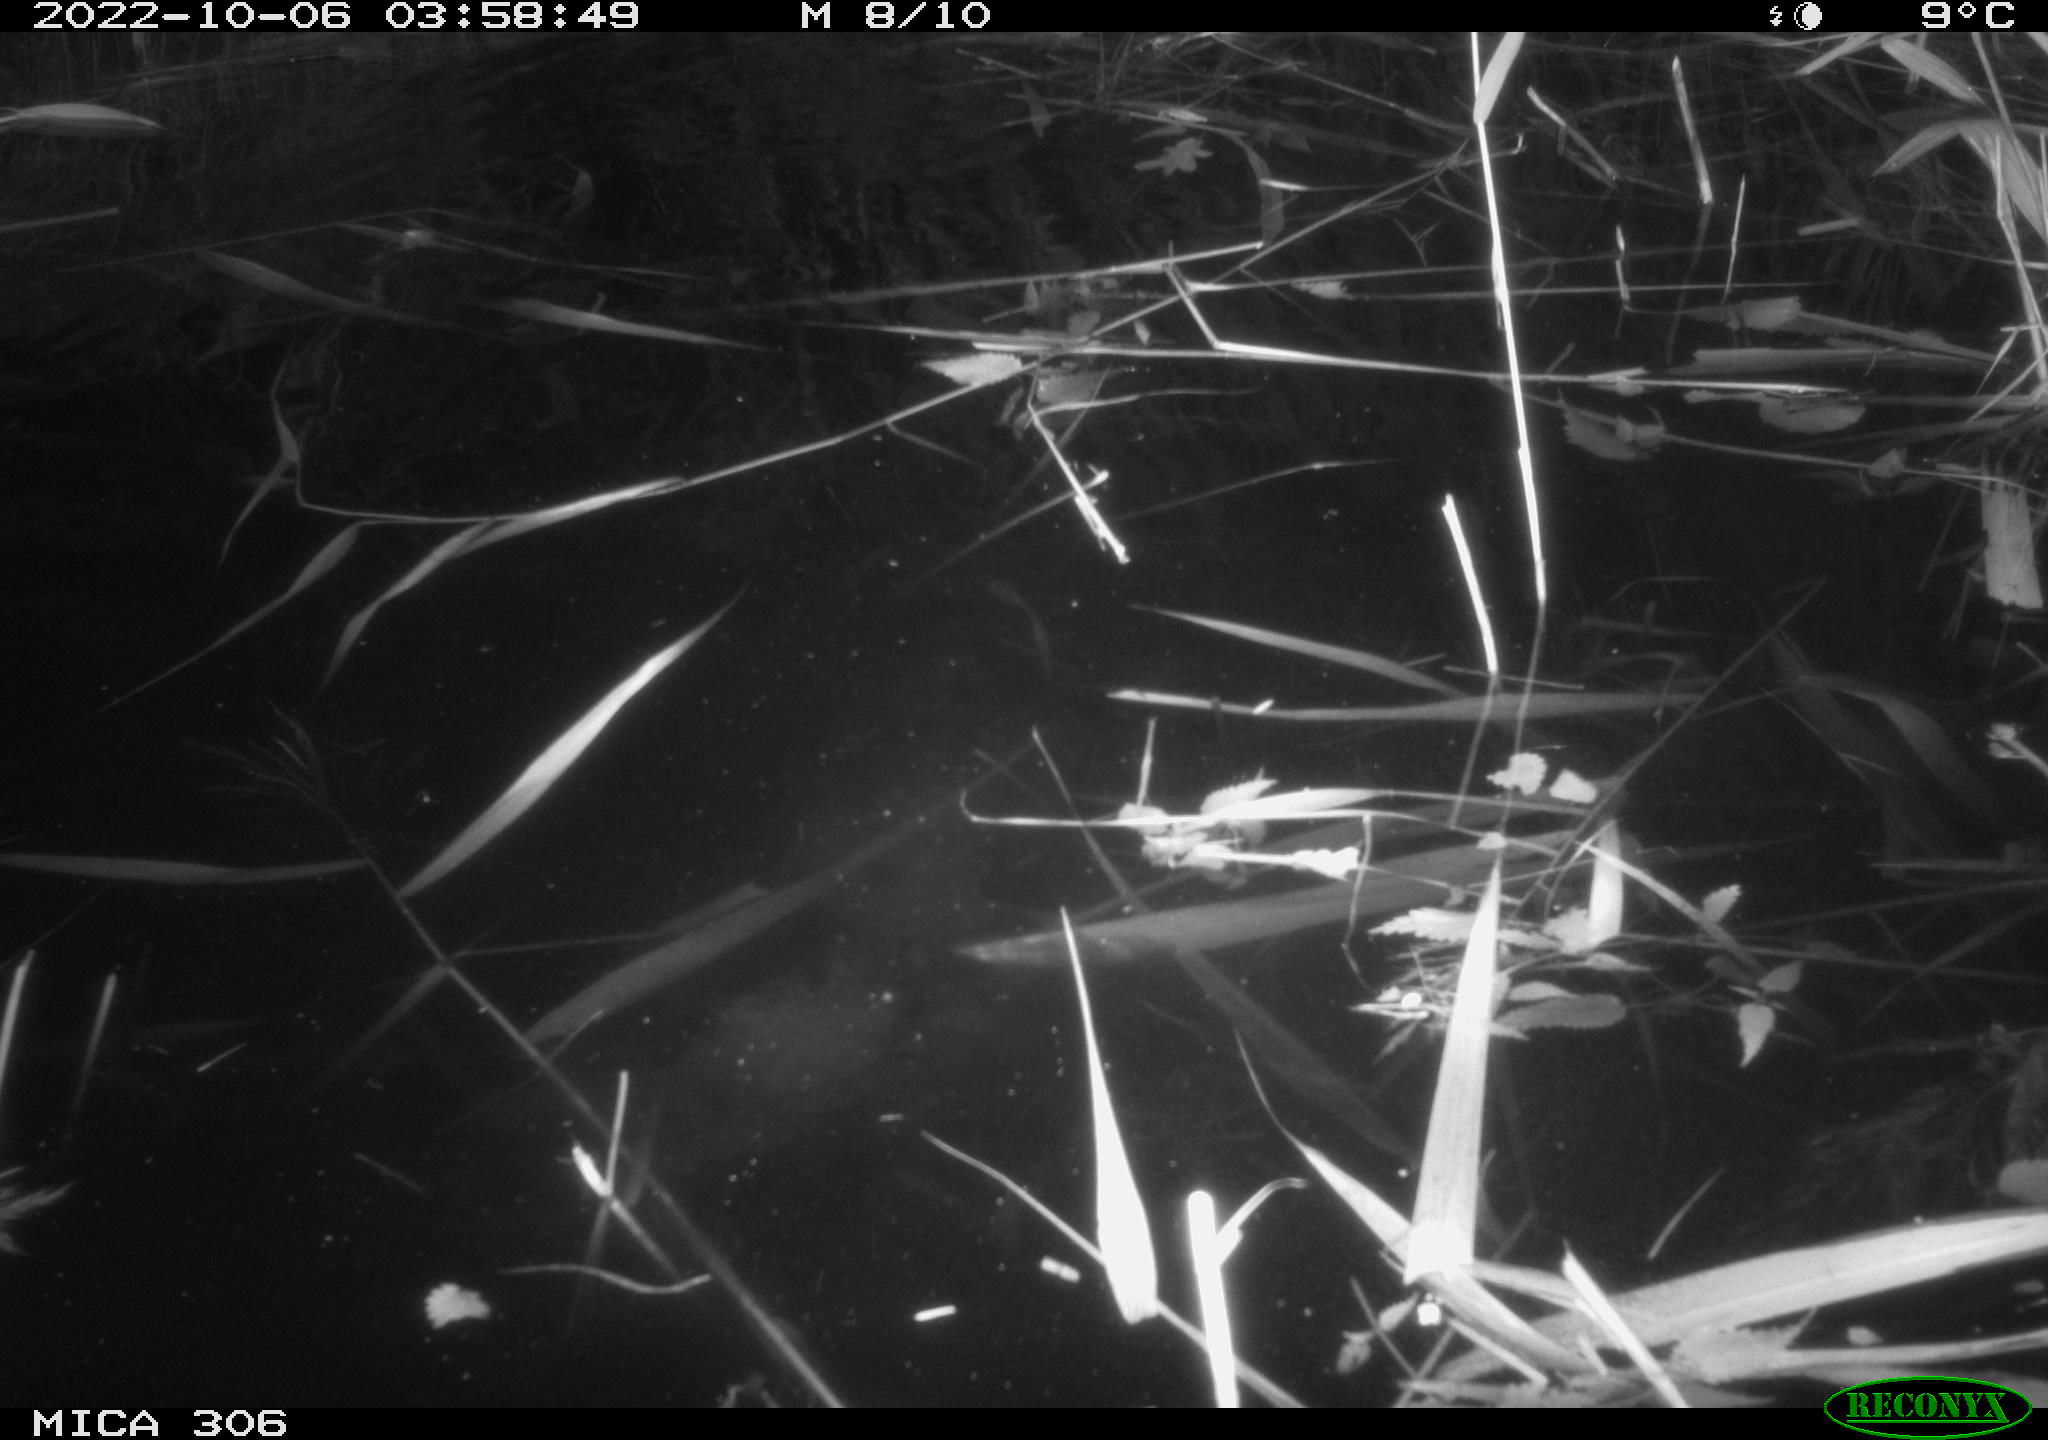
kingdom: Animalia
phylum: Chordata
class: Mammalia
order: Rodentia
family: Muridae
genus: Rattus
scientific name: Rattus norvegicus
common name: Brown rat
